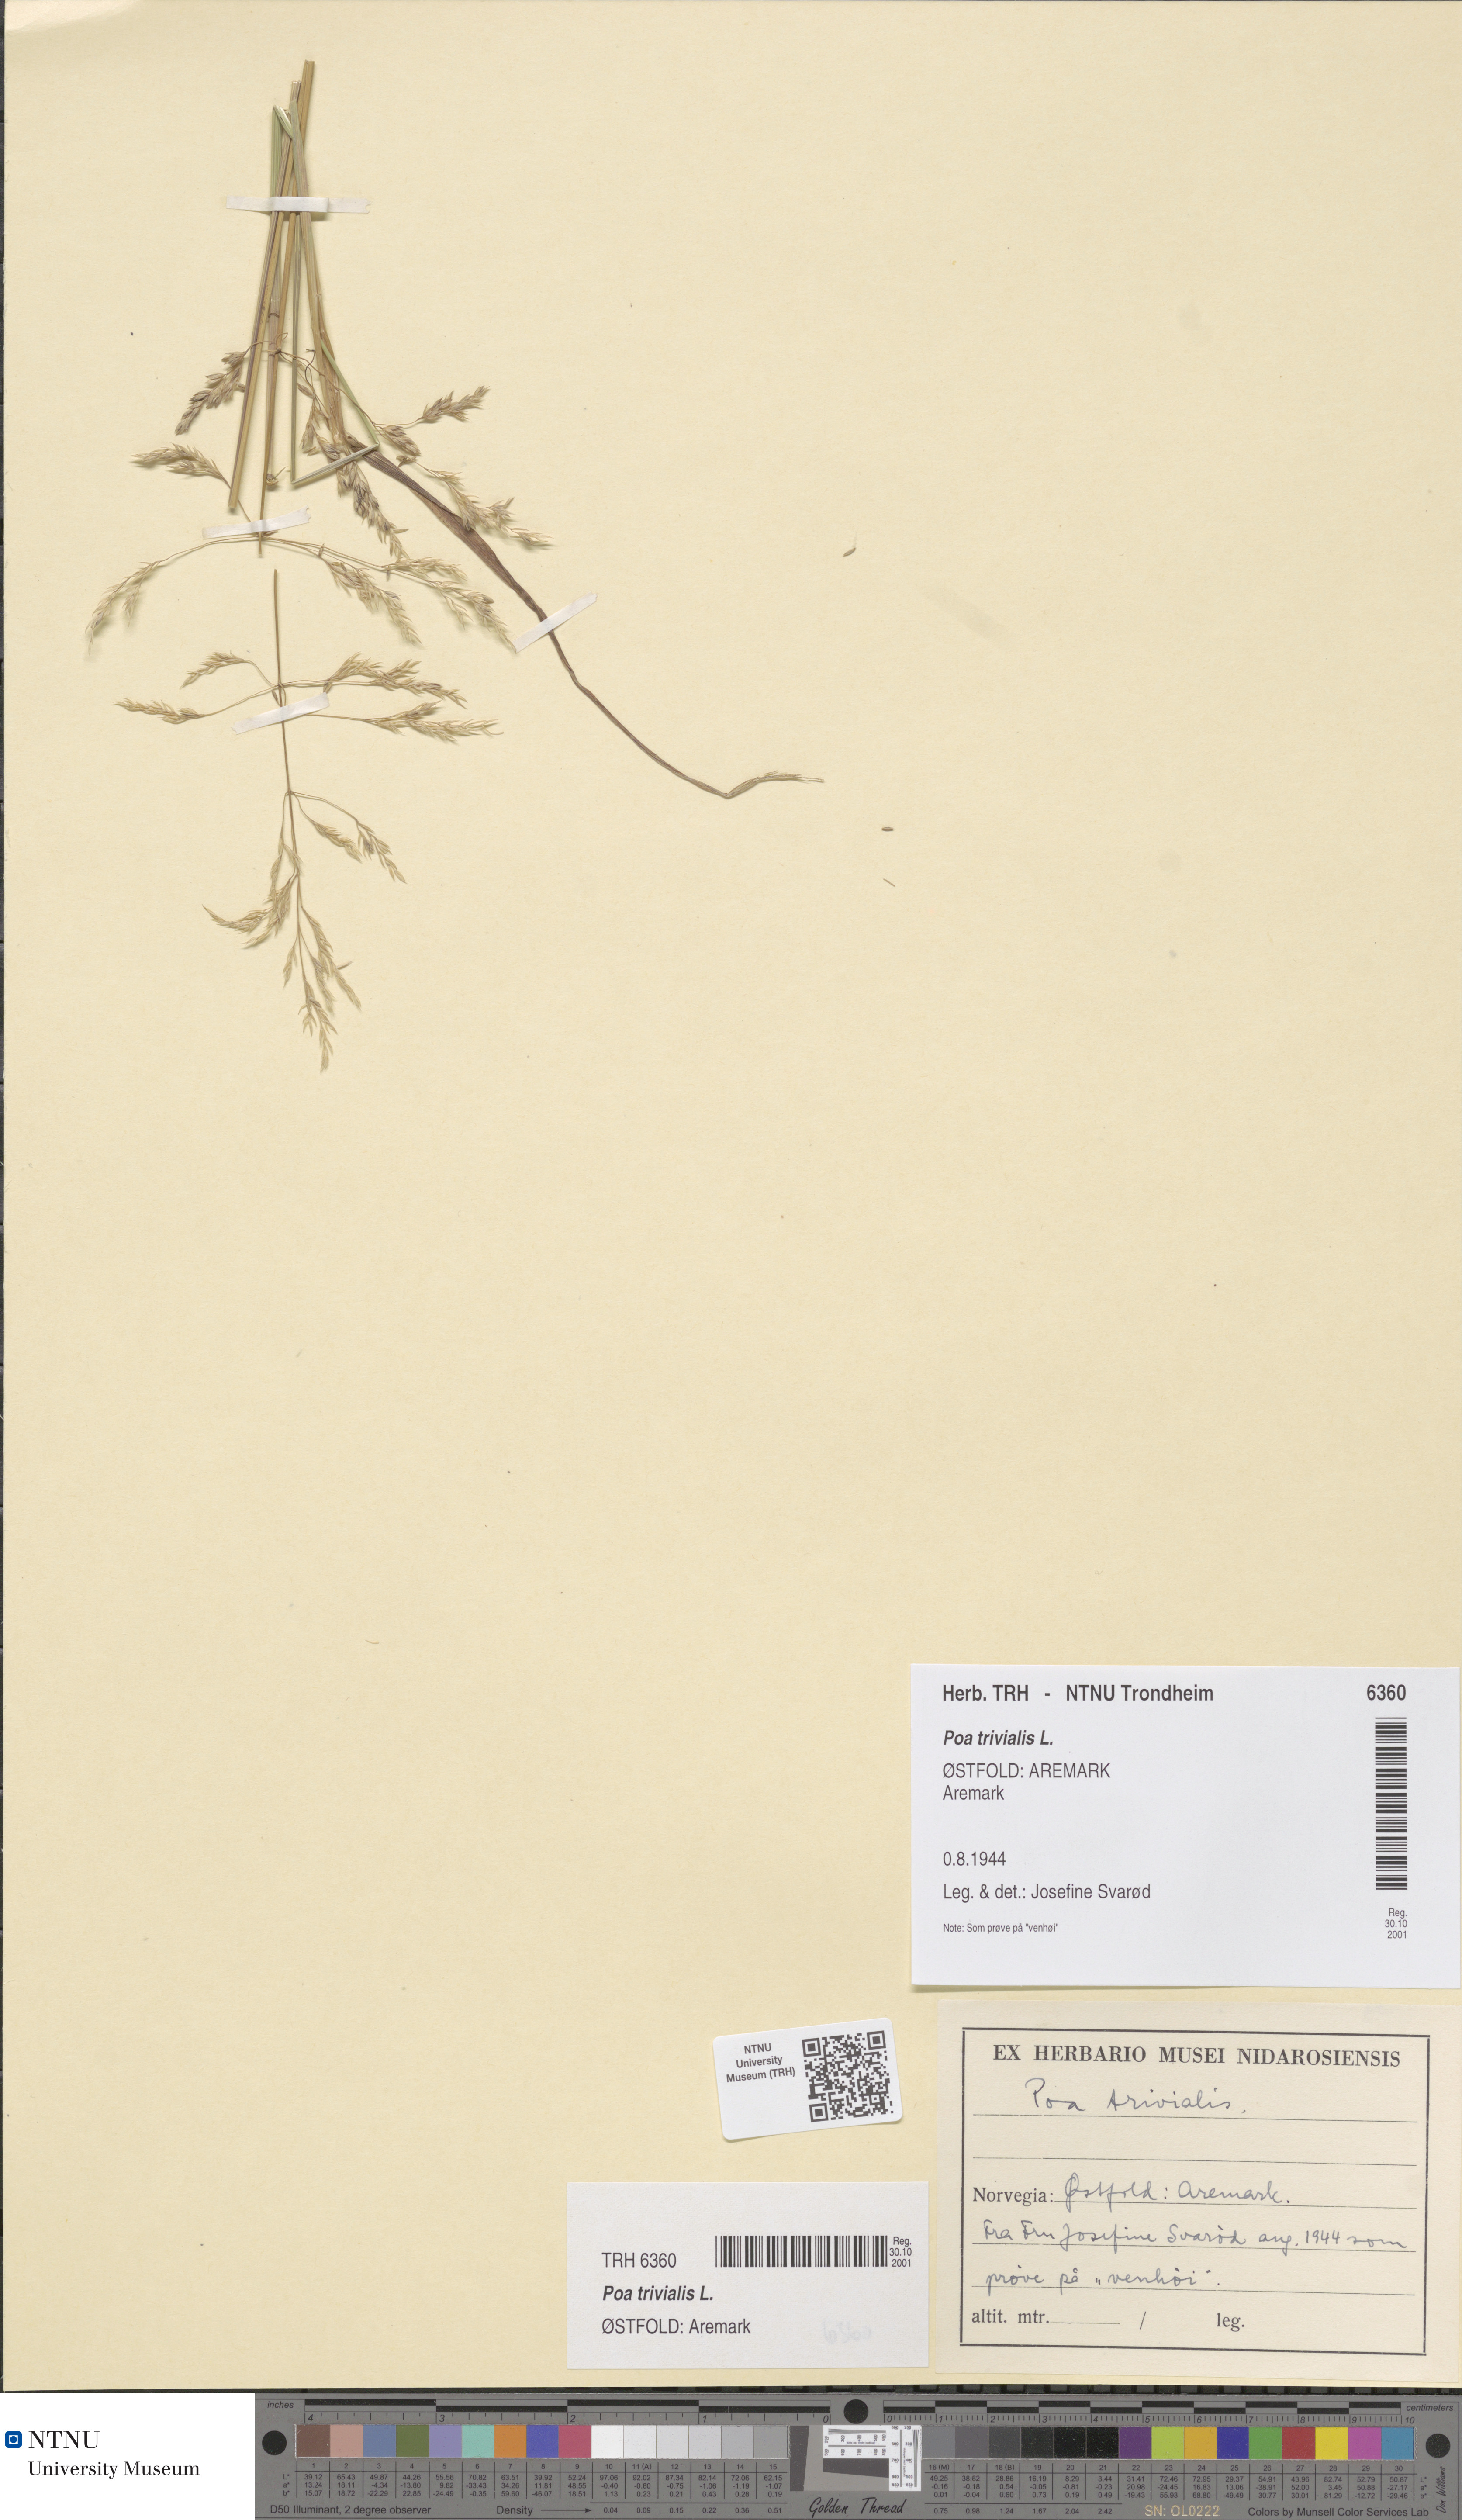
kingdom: Plantae
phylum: Tracheophyta
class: Liliopsida
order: Poales
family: Poaceae
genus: Poa
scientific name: Poa trivialis
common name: Rough bluegrass
